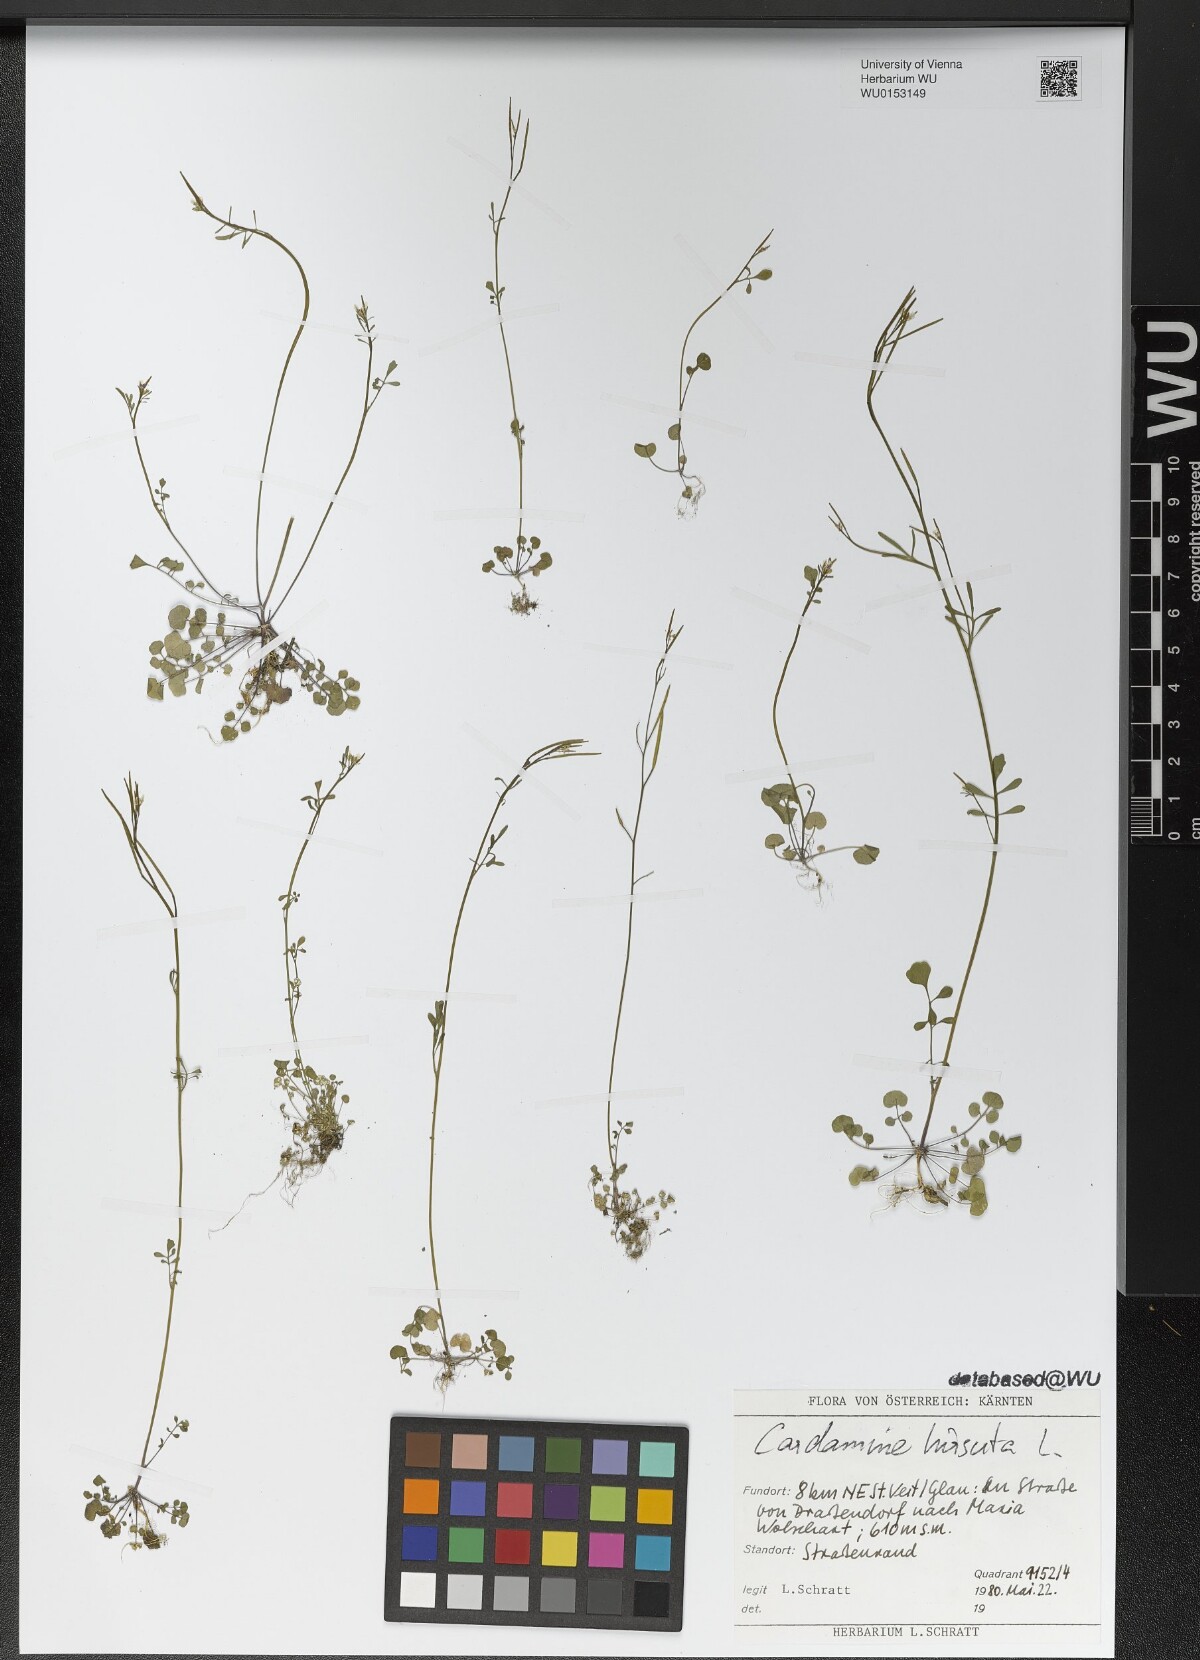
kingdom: Plantae
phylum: Tracheophyta
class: Magnoliopsida
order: Brassicales
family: Brassicaceae
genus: Cardamine
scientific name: Cardamine hirsuta
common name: Hairy bittercress
